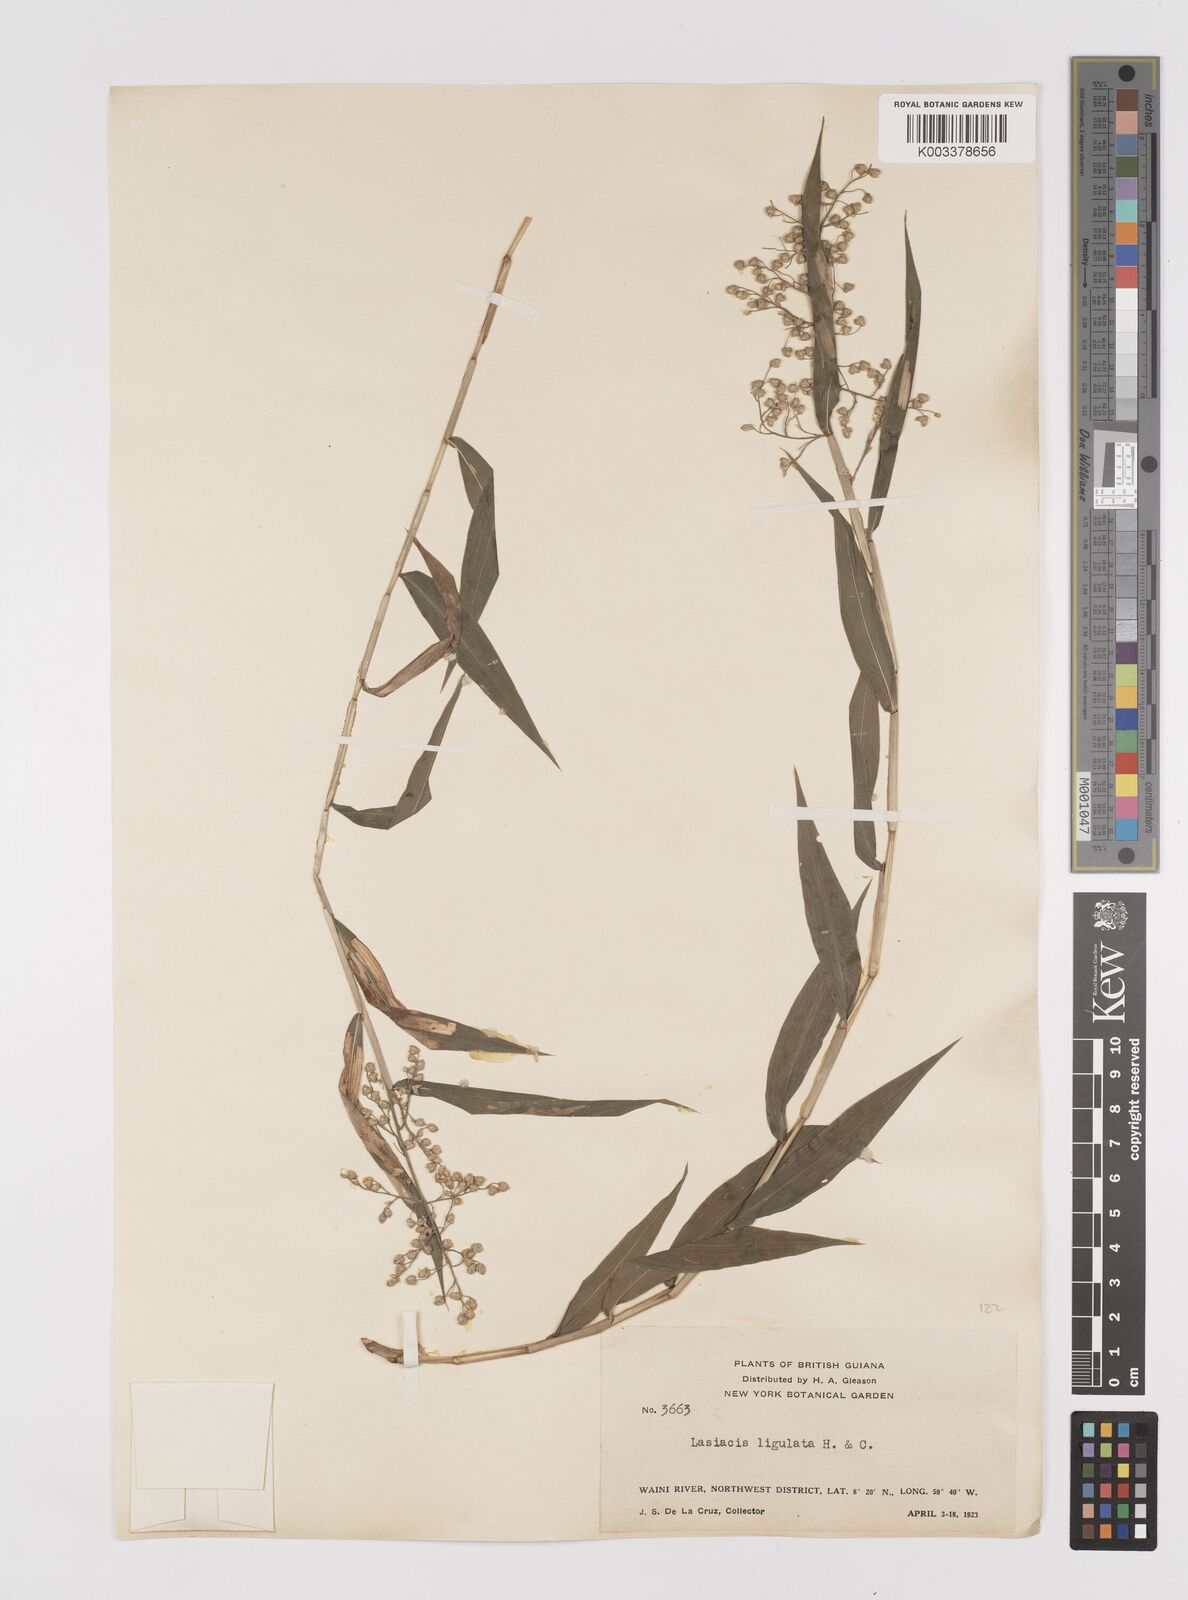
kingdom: Plantae
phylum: Tracheophyta
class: Liliopsida
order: Poales
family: Poaceae
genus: Lasiacis
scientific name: Lasiacis ligulata
